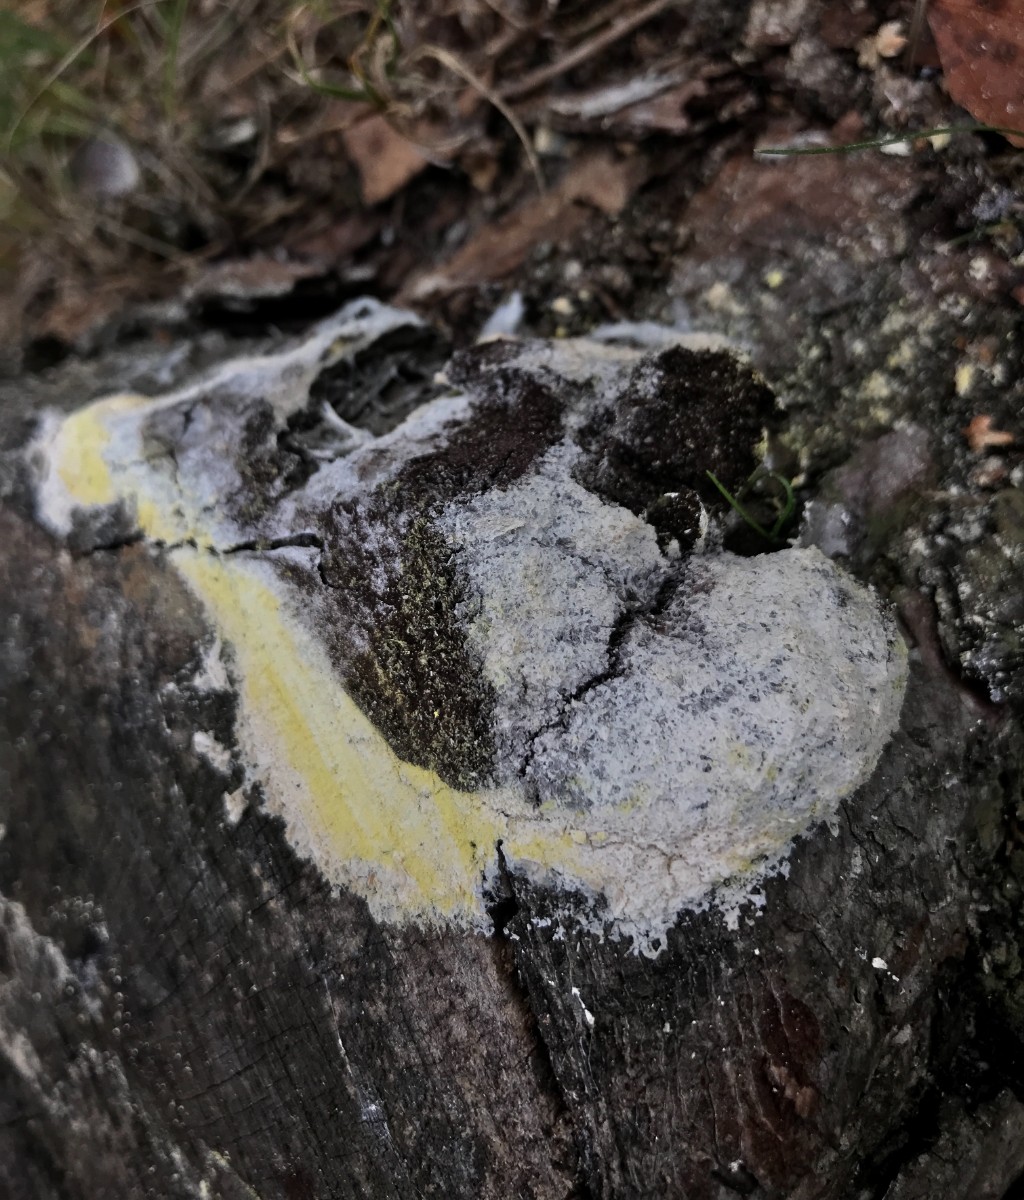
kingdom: Protozoa
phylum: Mycetozoa
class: Myxomycetes
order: Physarales
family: Physaraceae
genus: Fuligo
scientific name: Fuligo septica
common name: gul troldsmør
